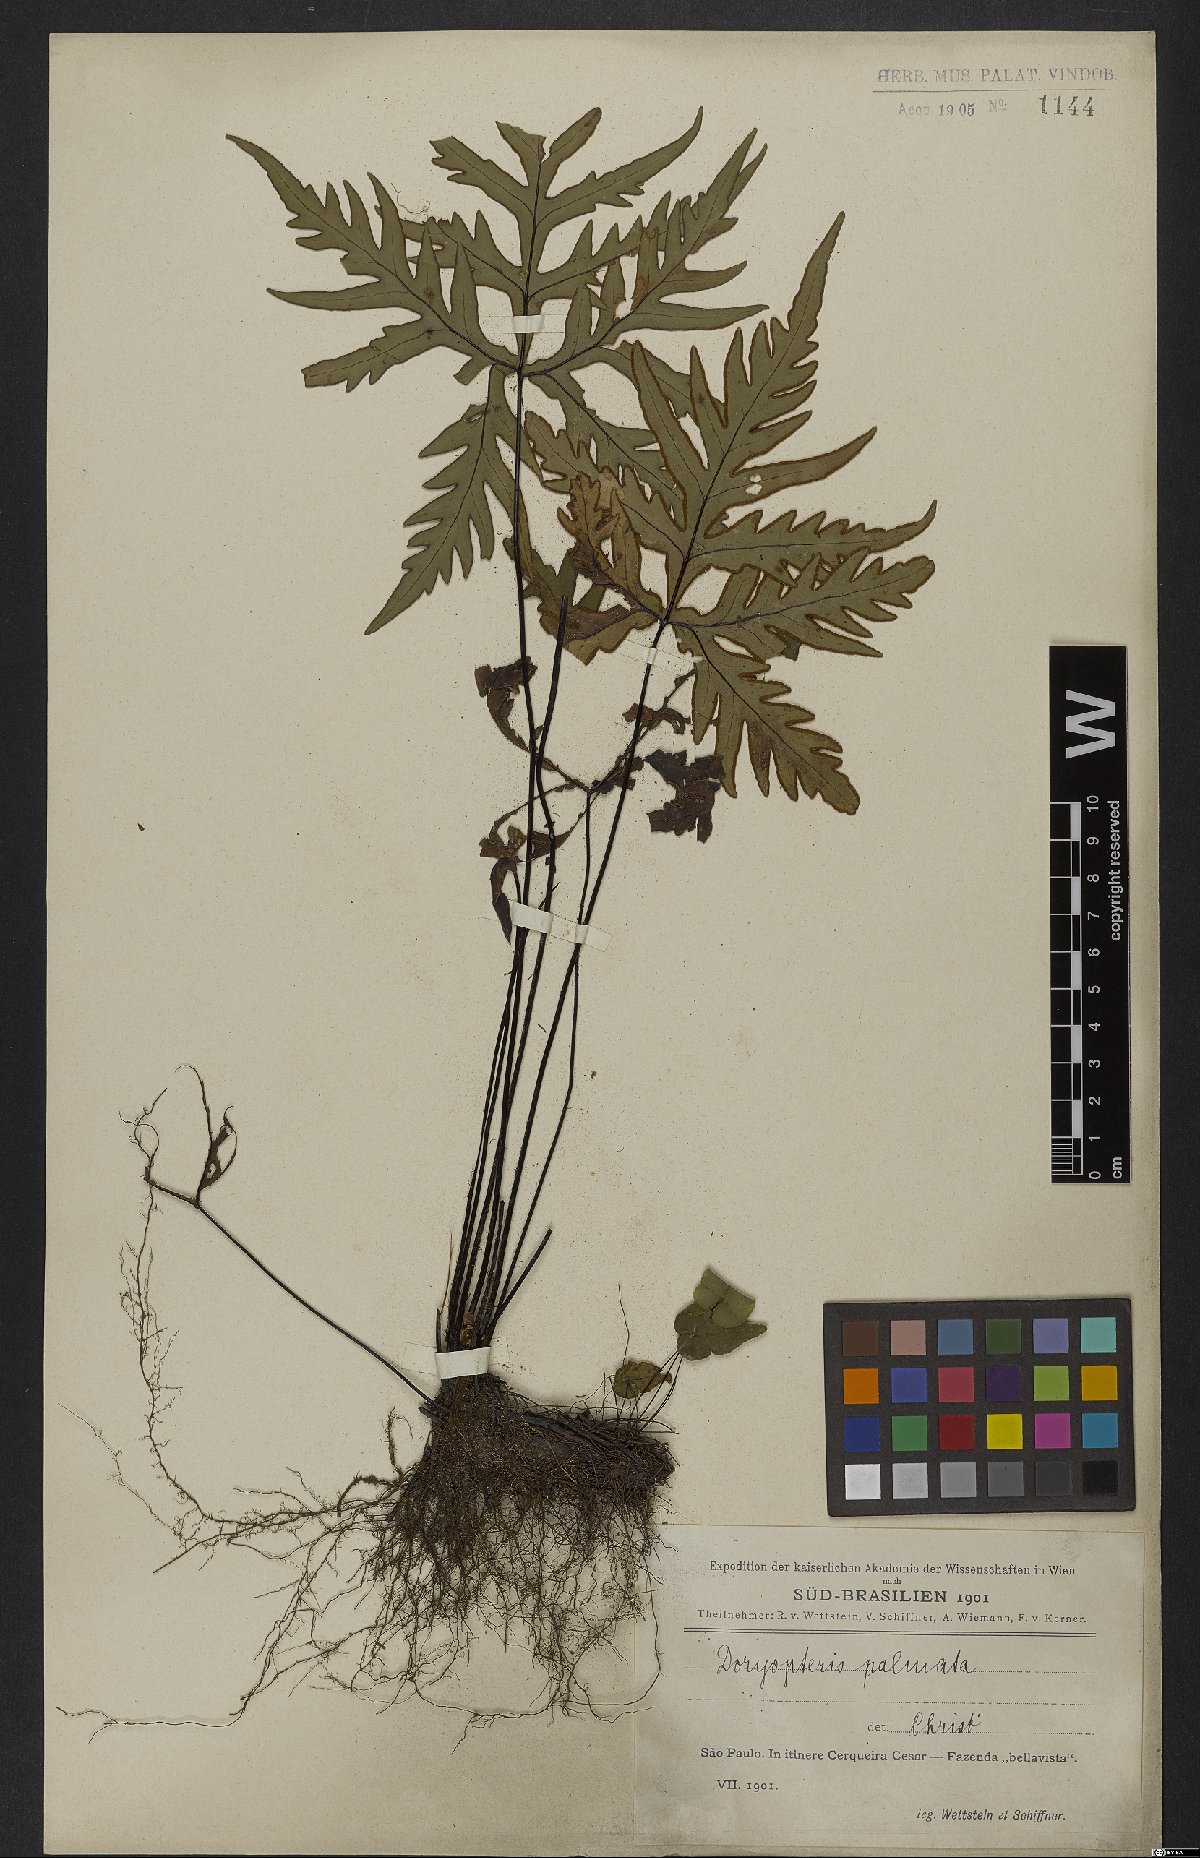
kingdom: Plantae
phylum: Tracheophyta
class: Polypodiopsida
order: Polypodiales
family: Pteridaceae
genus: Doryopteris
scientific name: Doryopteris pedata
